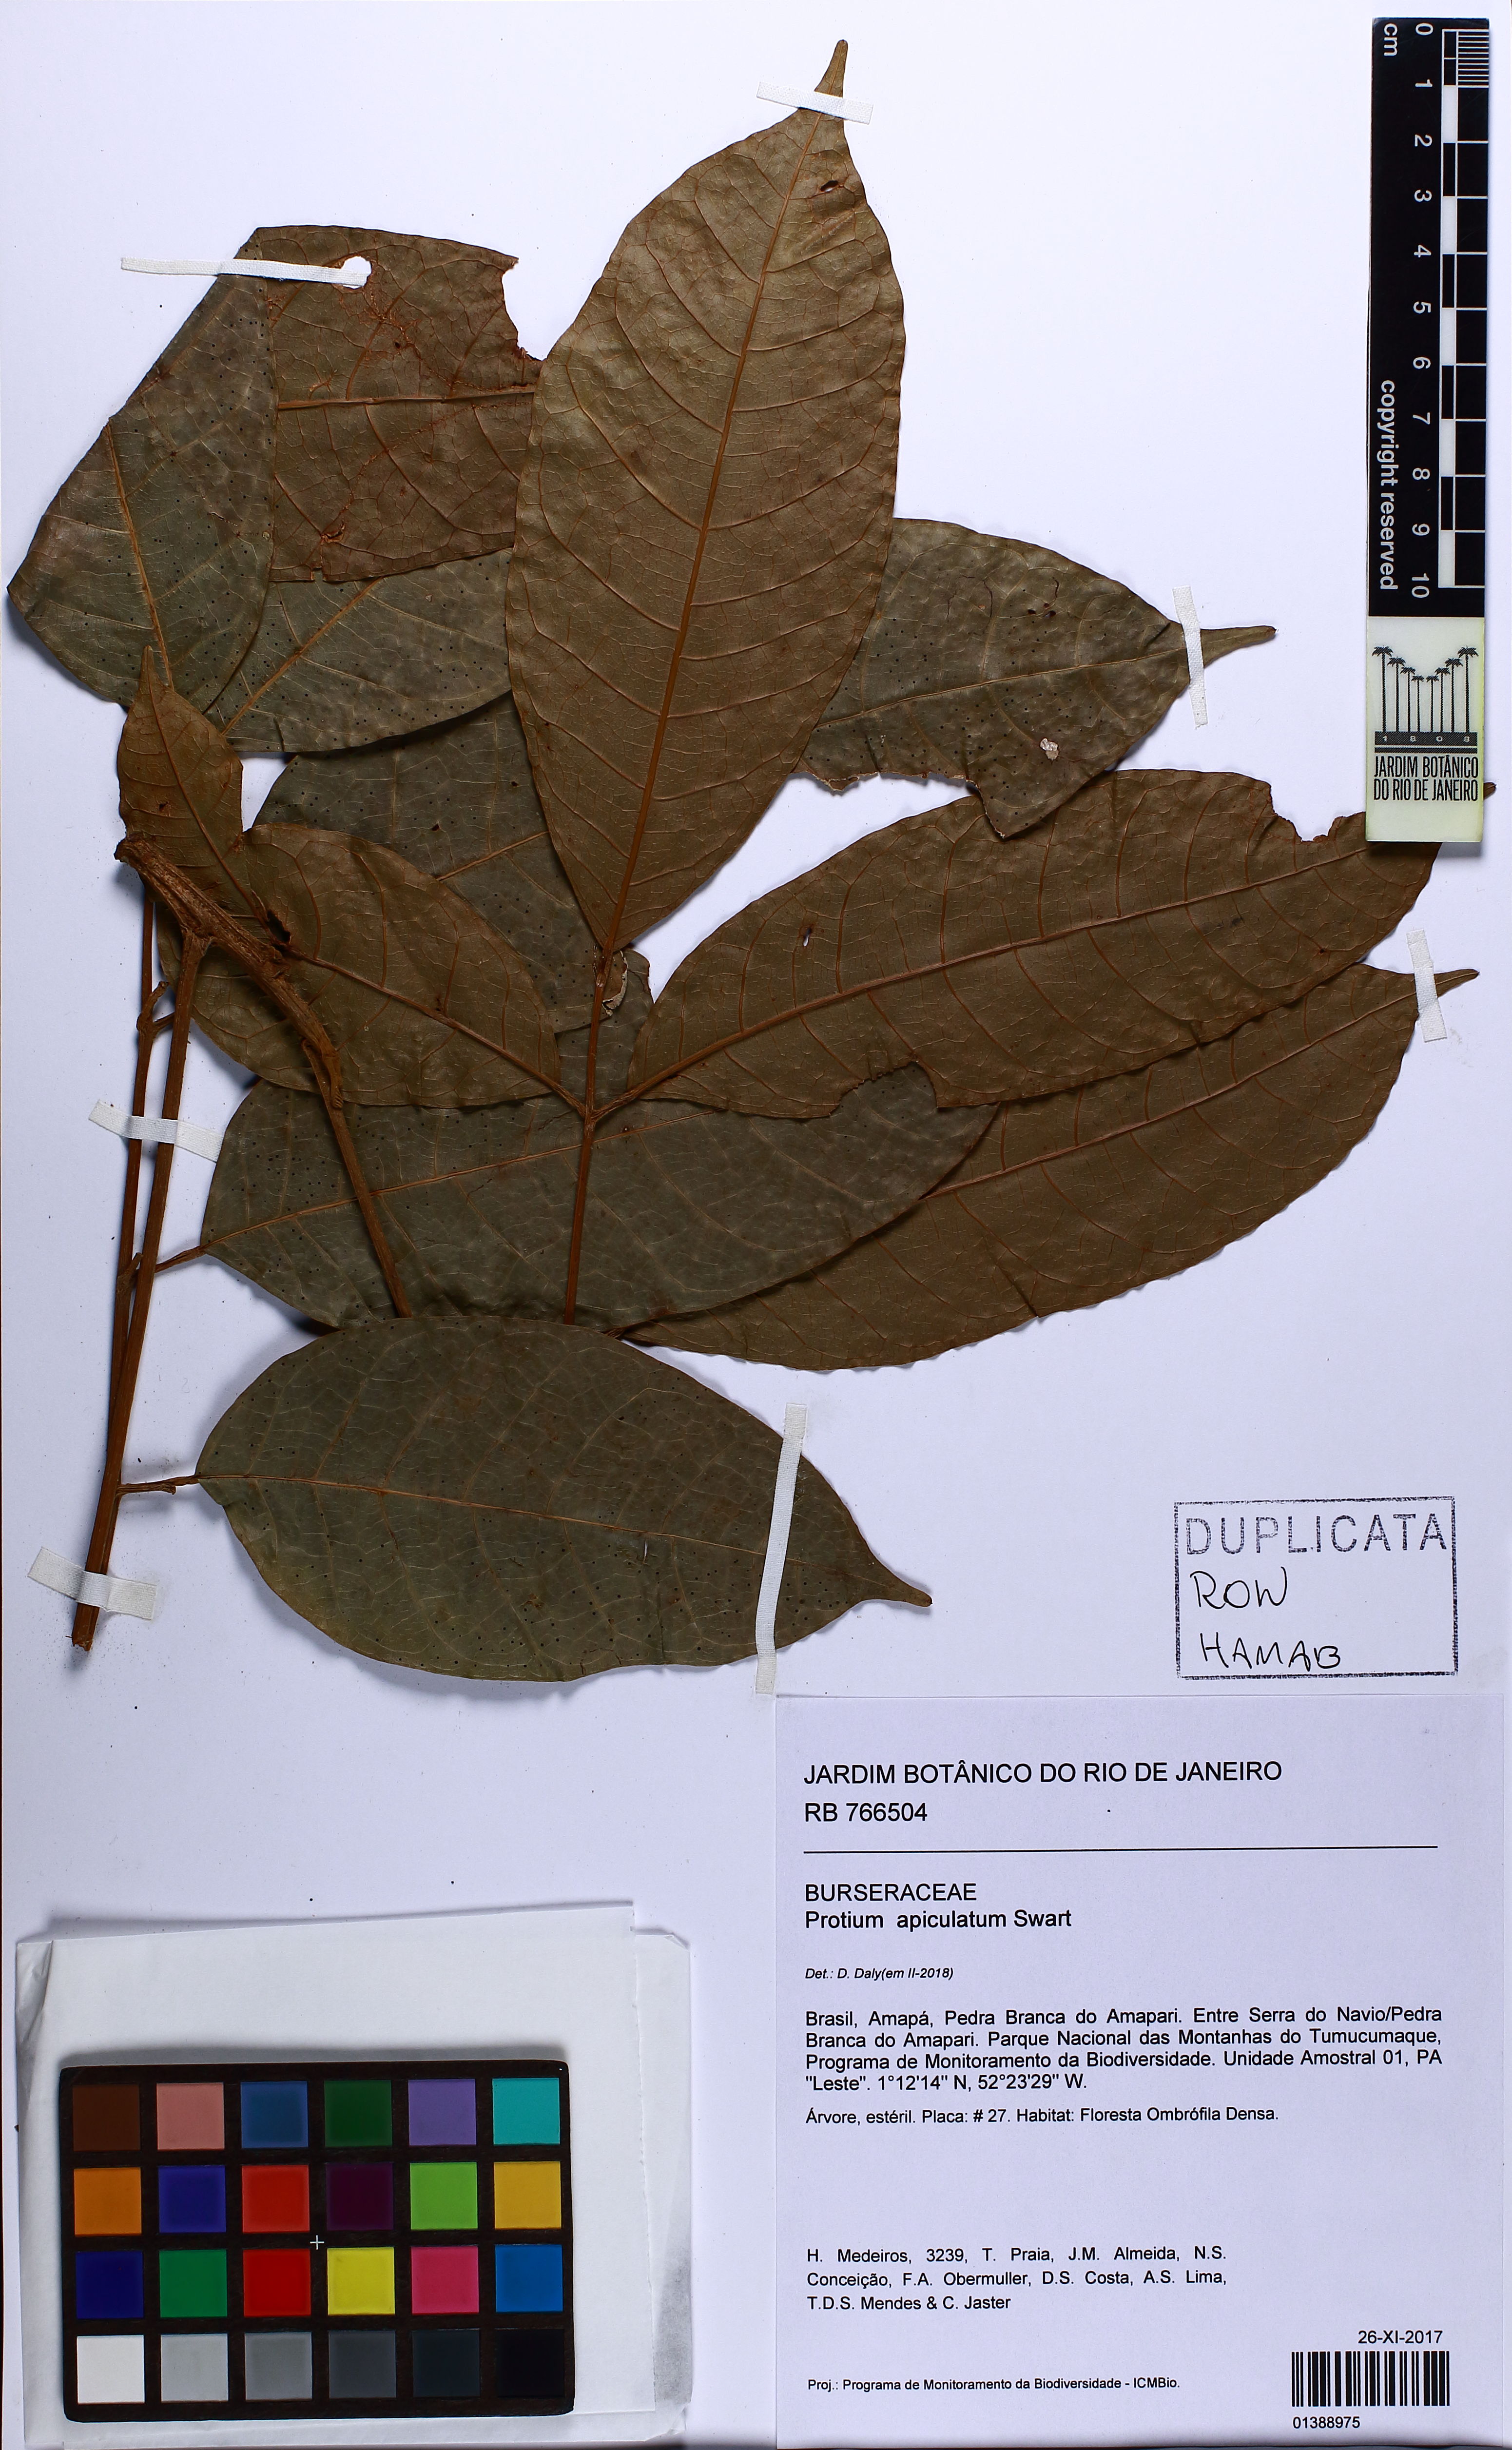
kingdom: Plantae
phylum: Tracheophyta
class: Magnoliopsida
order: Sapindales
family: Burseraceae
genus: Protium
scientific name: Protium apiculatum
